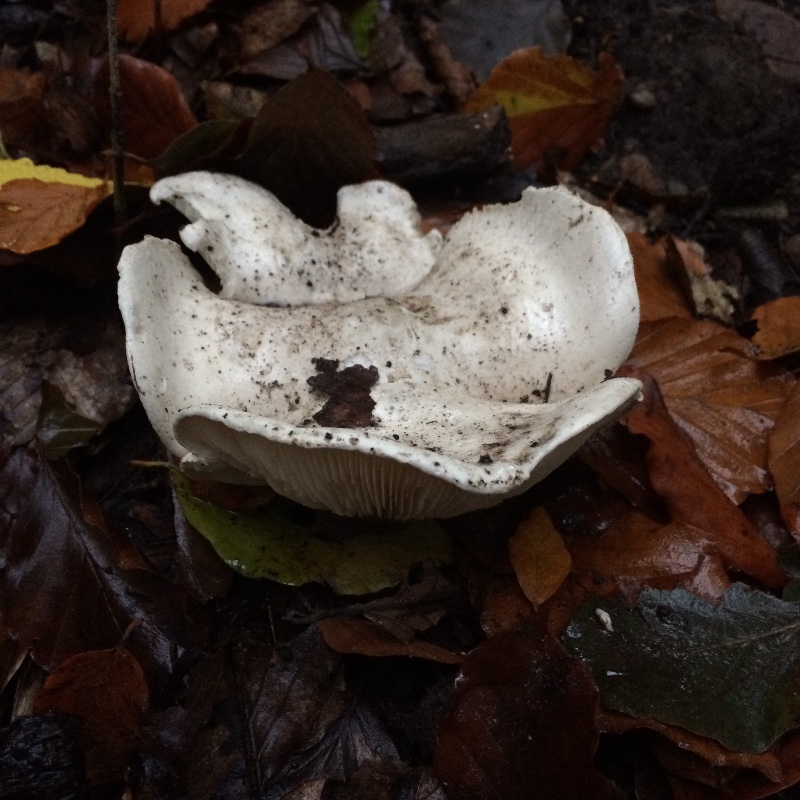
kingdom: Fungi
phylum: Basidiomycota
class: Agaricomycetes
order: Agaricales
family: Entolomataceae
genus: Clitopilus
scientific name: Clitopilus prunulus
